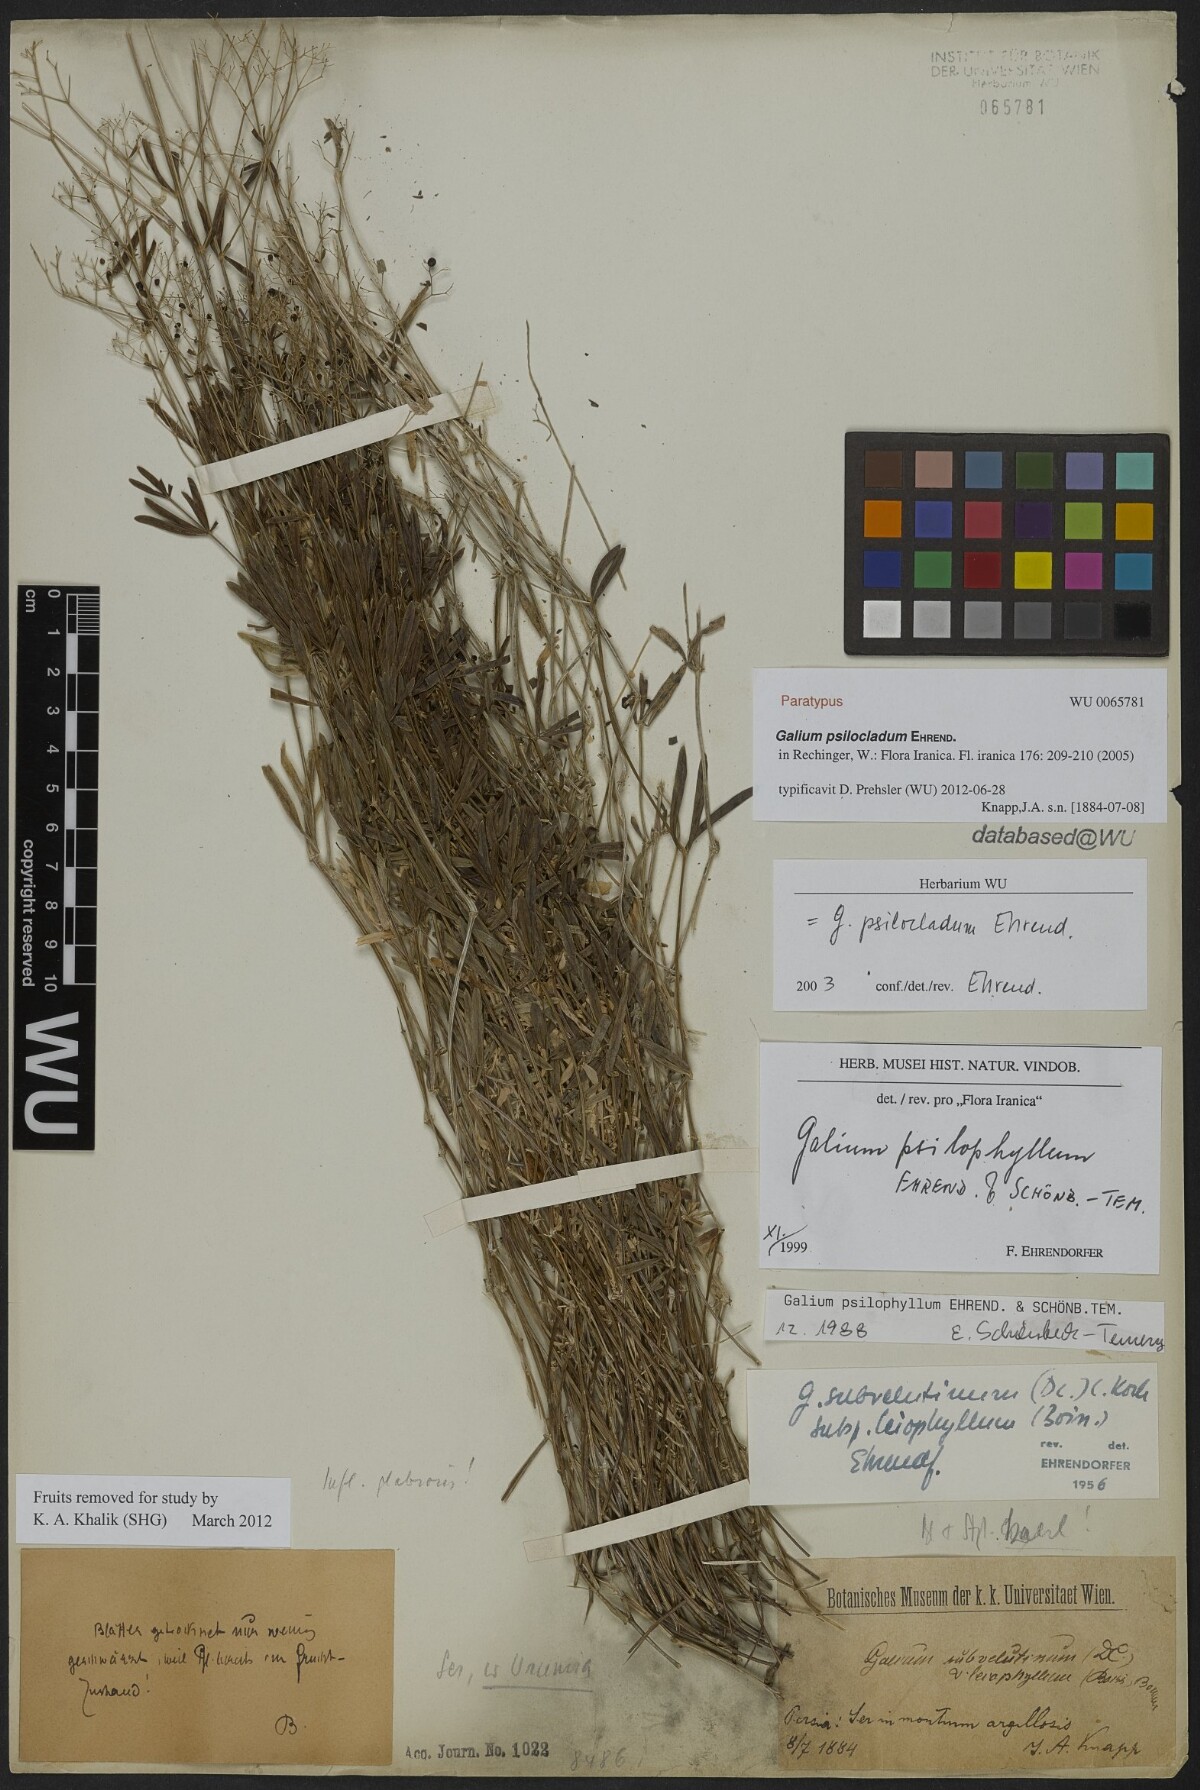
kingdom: Plantae
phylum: Tracheophyta
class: Magnoliopsida
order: Gentianales
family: Rubiaceae
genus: Galium
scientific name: Galium psilocladum
